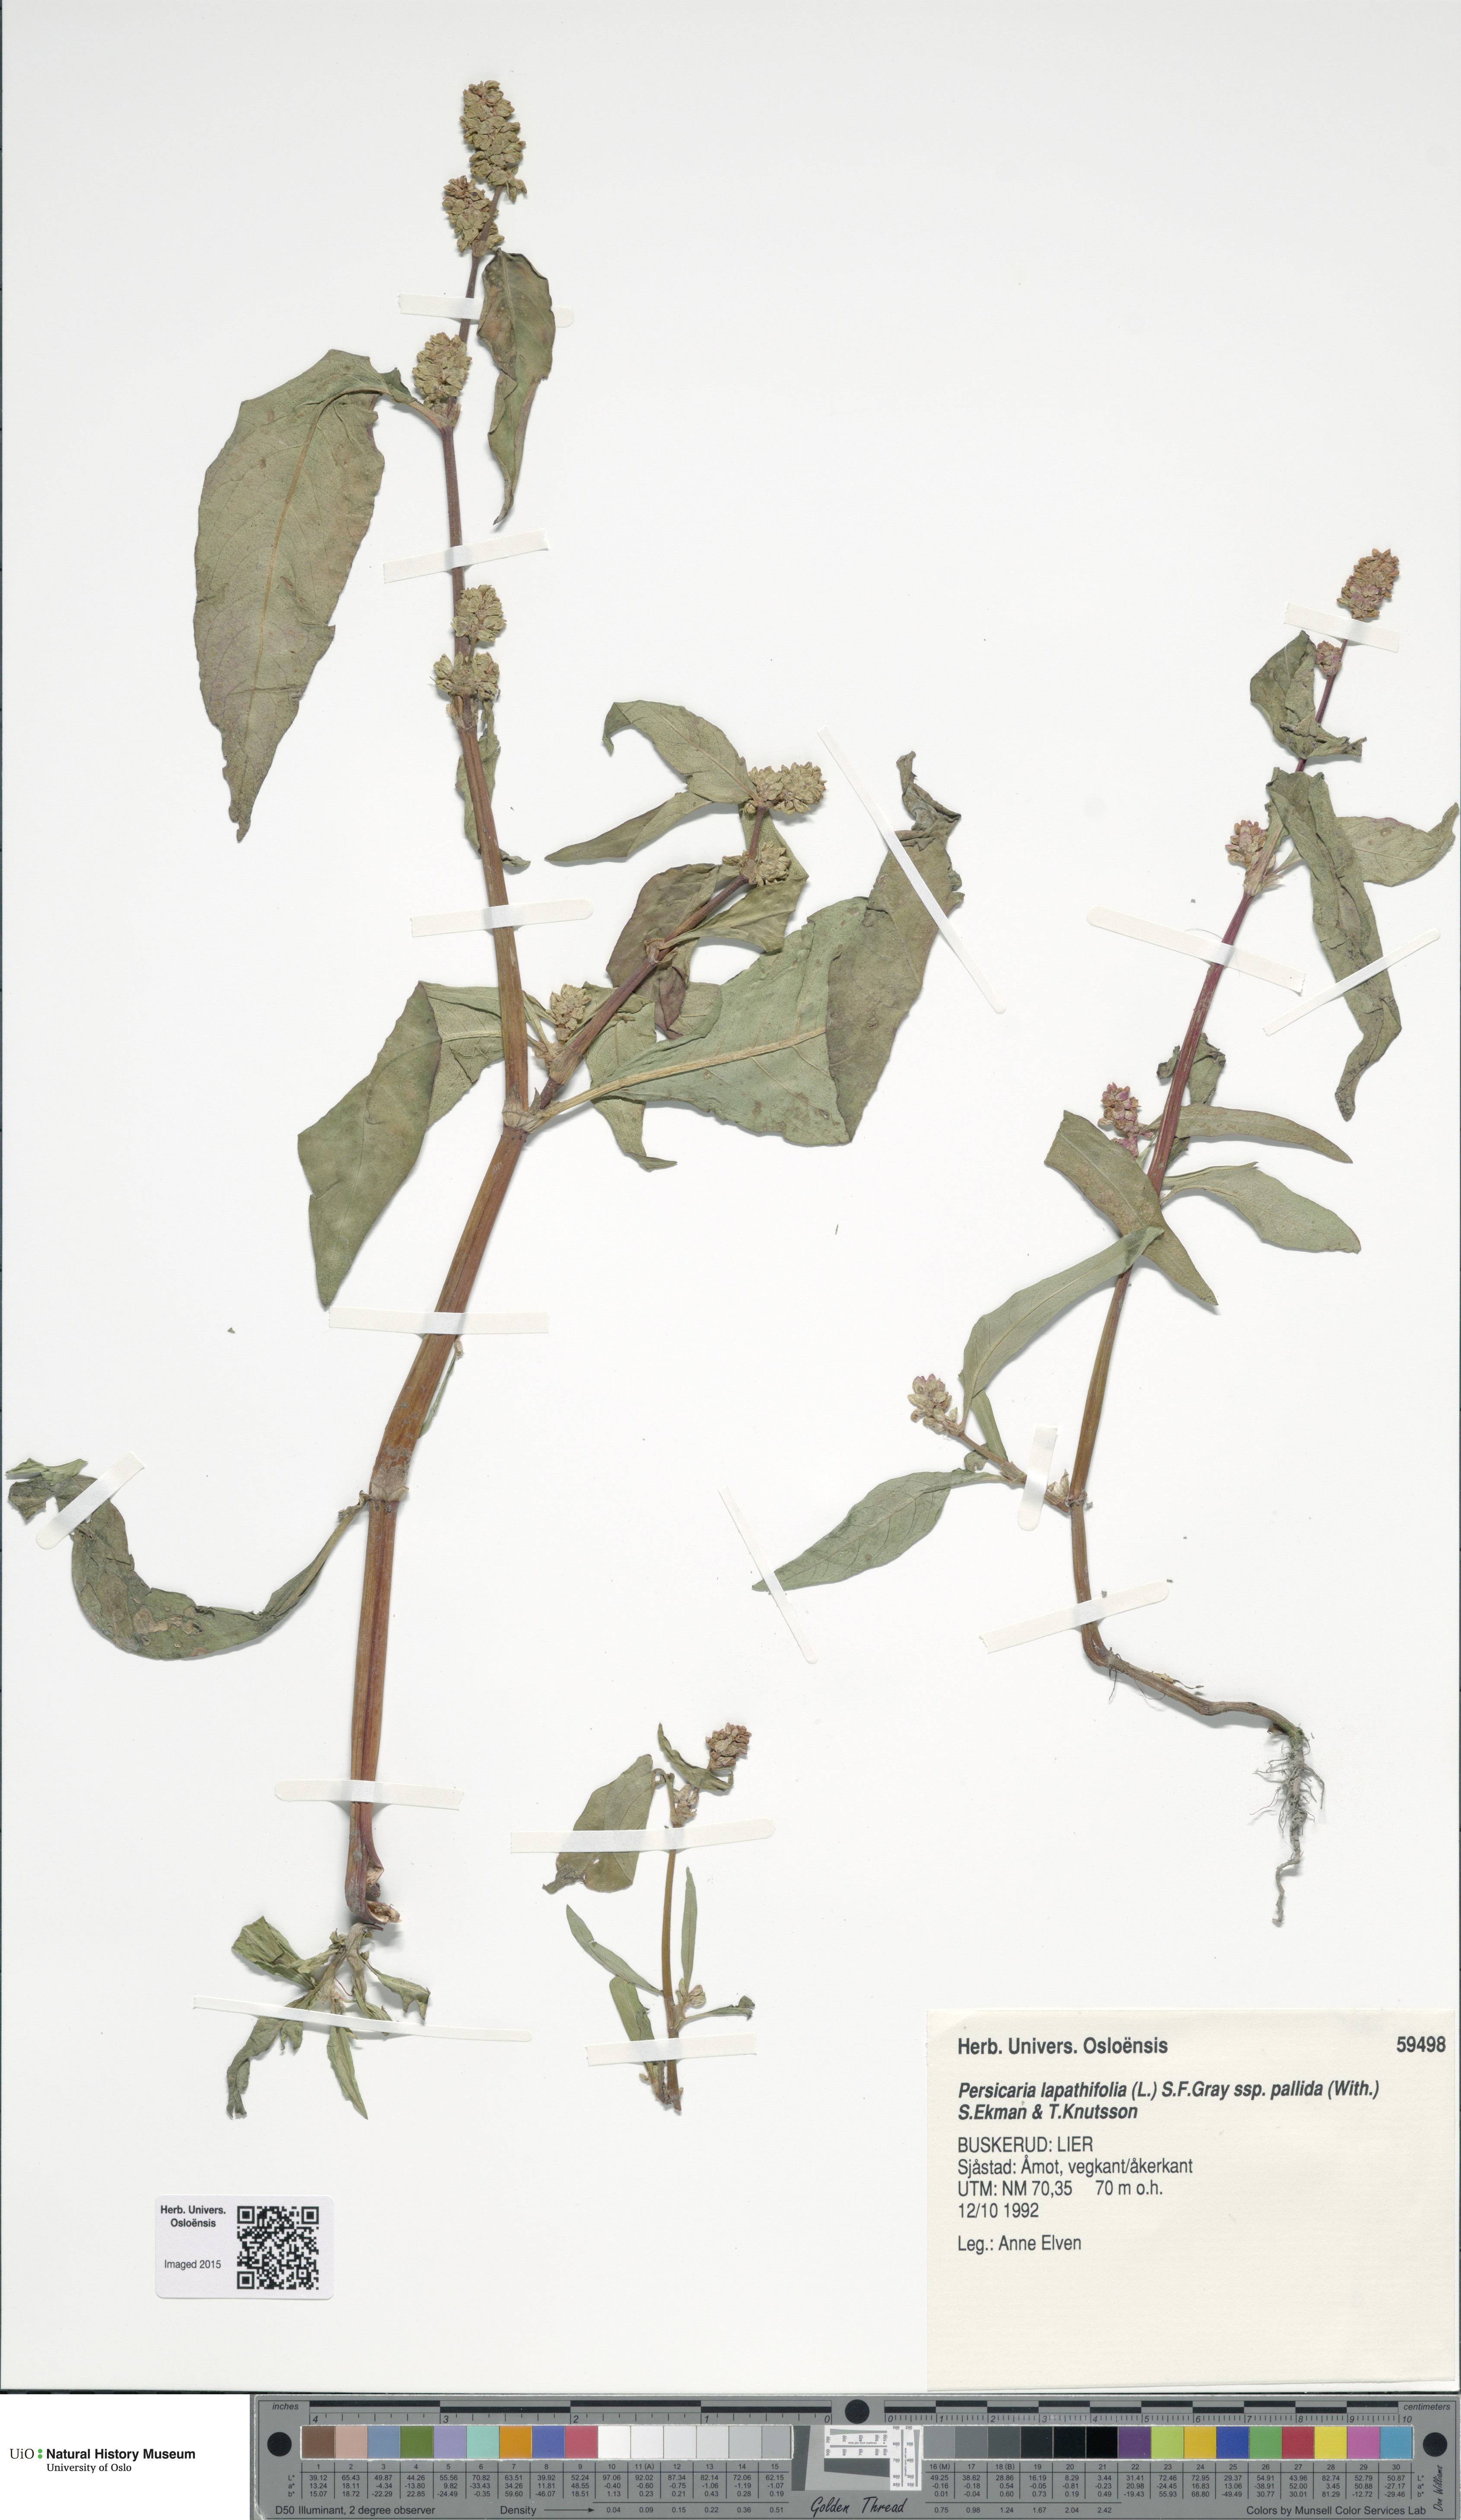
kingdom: Plantae
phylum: Tracheophyta
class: Magnoliopsida
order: Caryophyllales
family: Polygonaceae
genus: Persicaria
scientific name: Persicaria lapathifolia
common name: Curlytop knotweed
